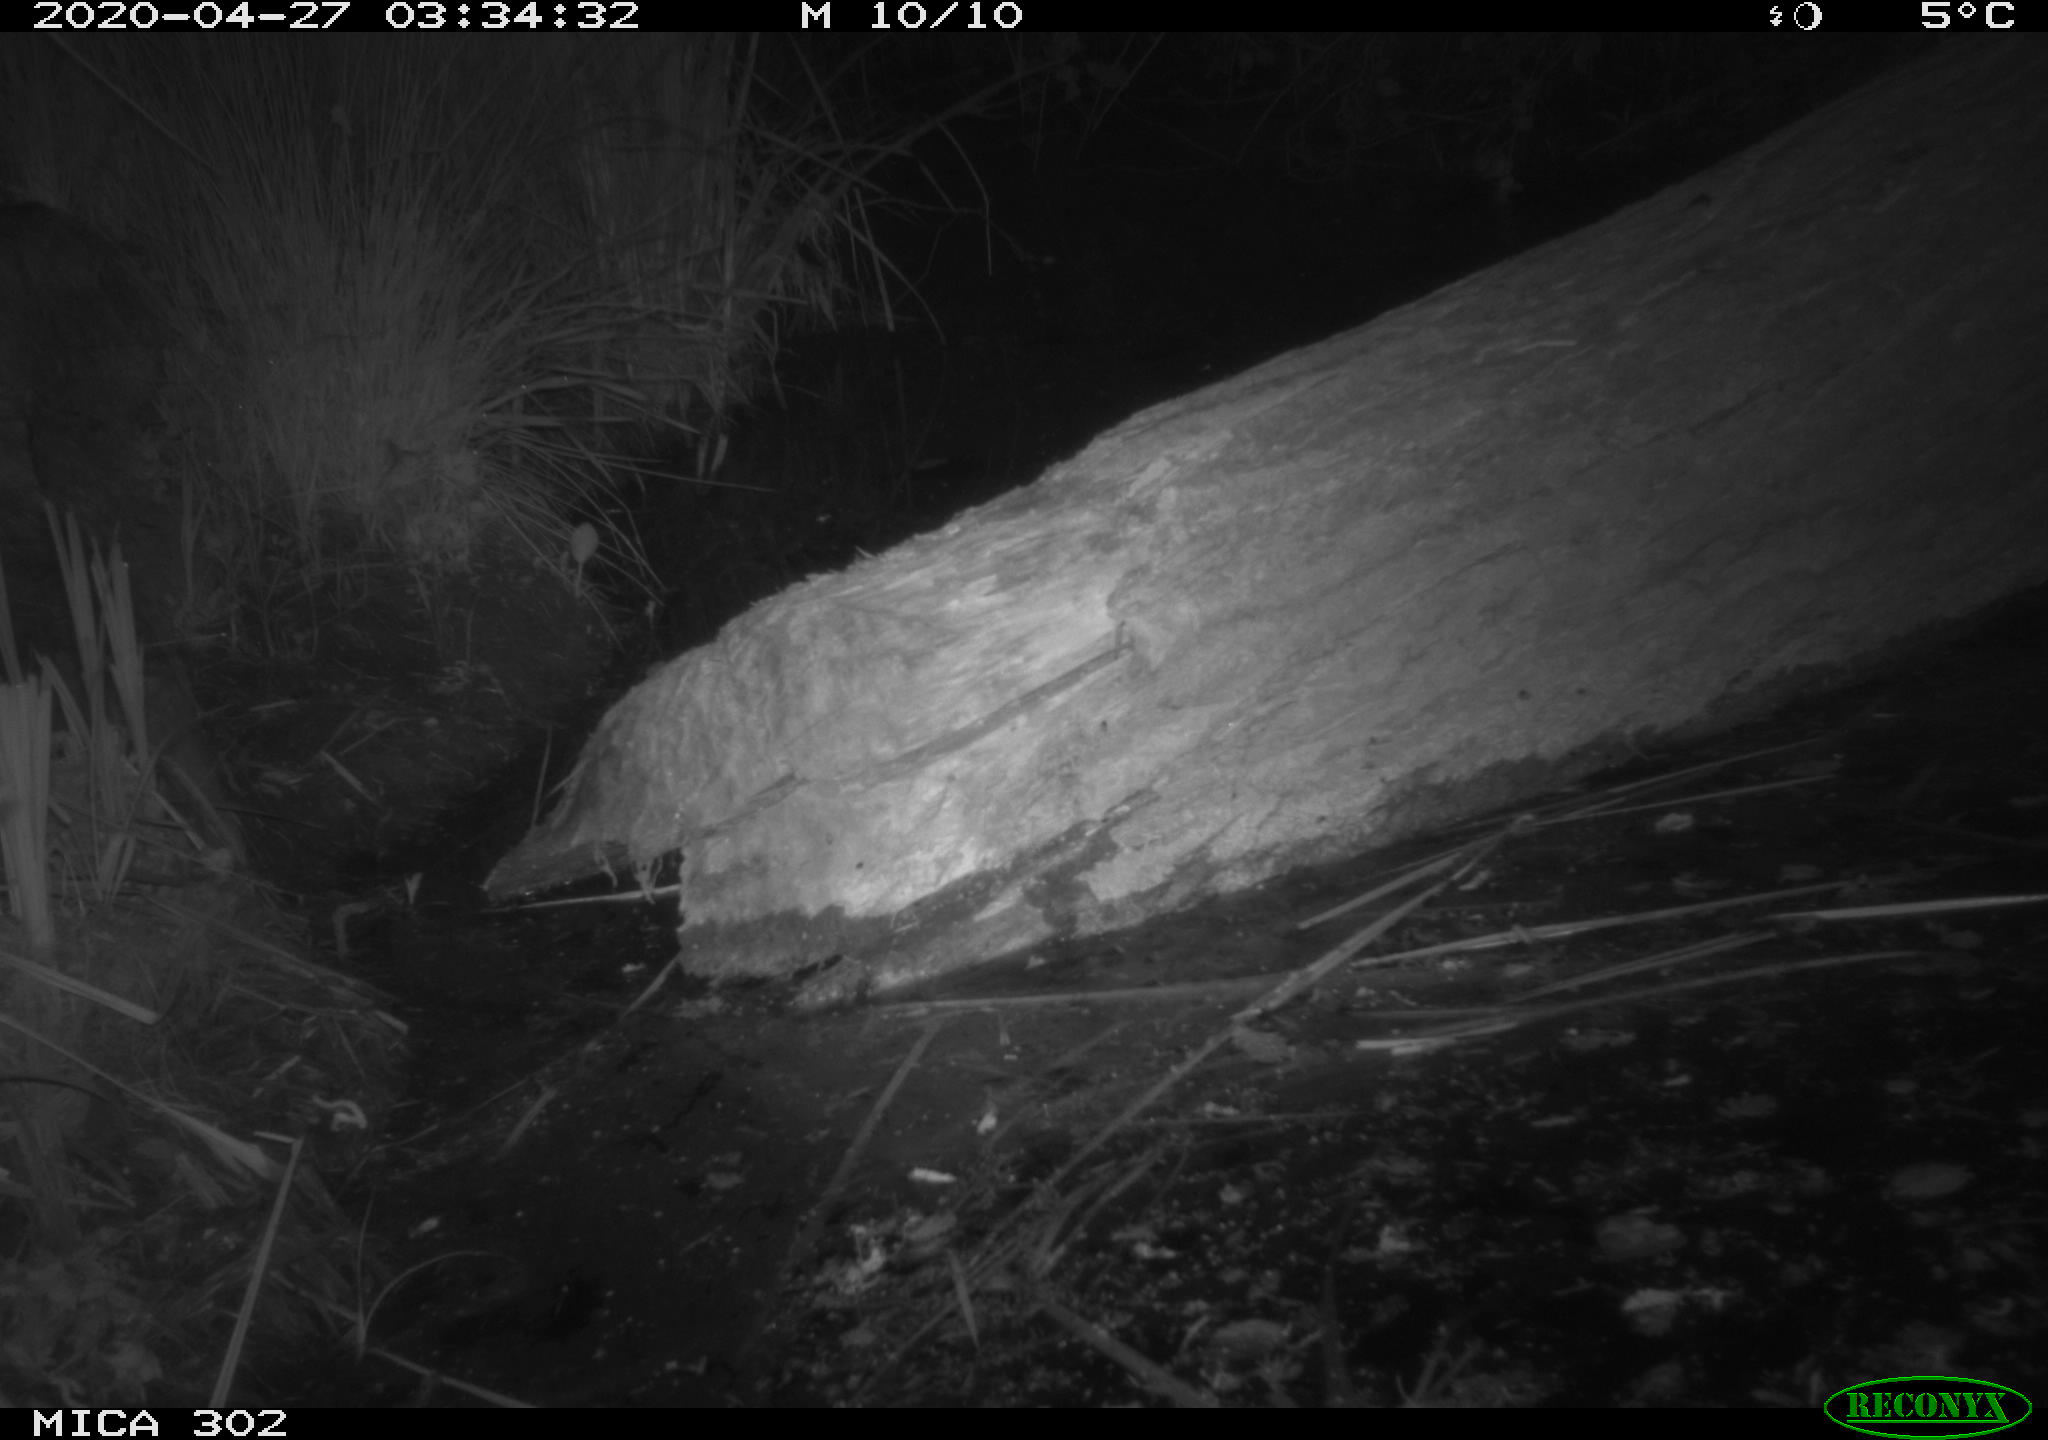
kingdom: Animalia
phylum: Chordata
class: Mammalia
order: Carnivora
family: Canidae
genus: Vulpes
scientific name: Vulpes vulpes
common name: Red fox
